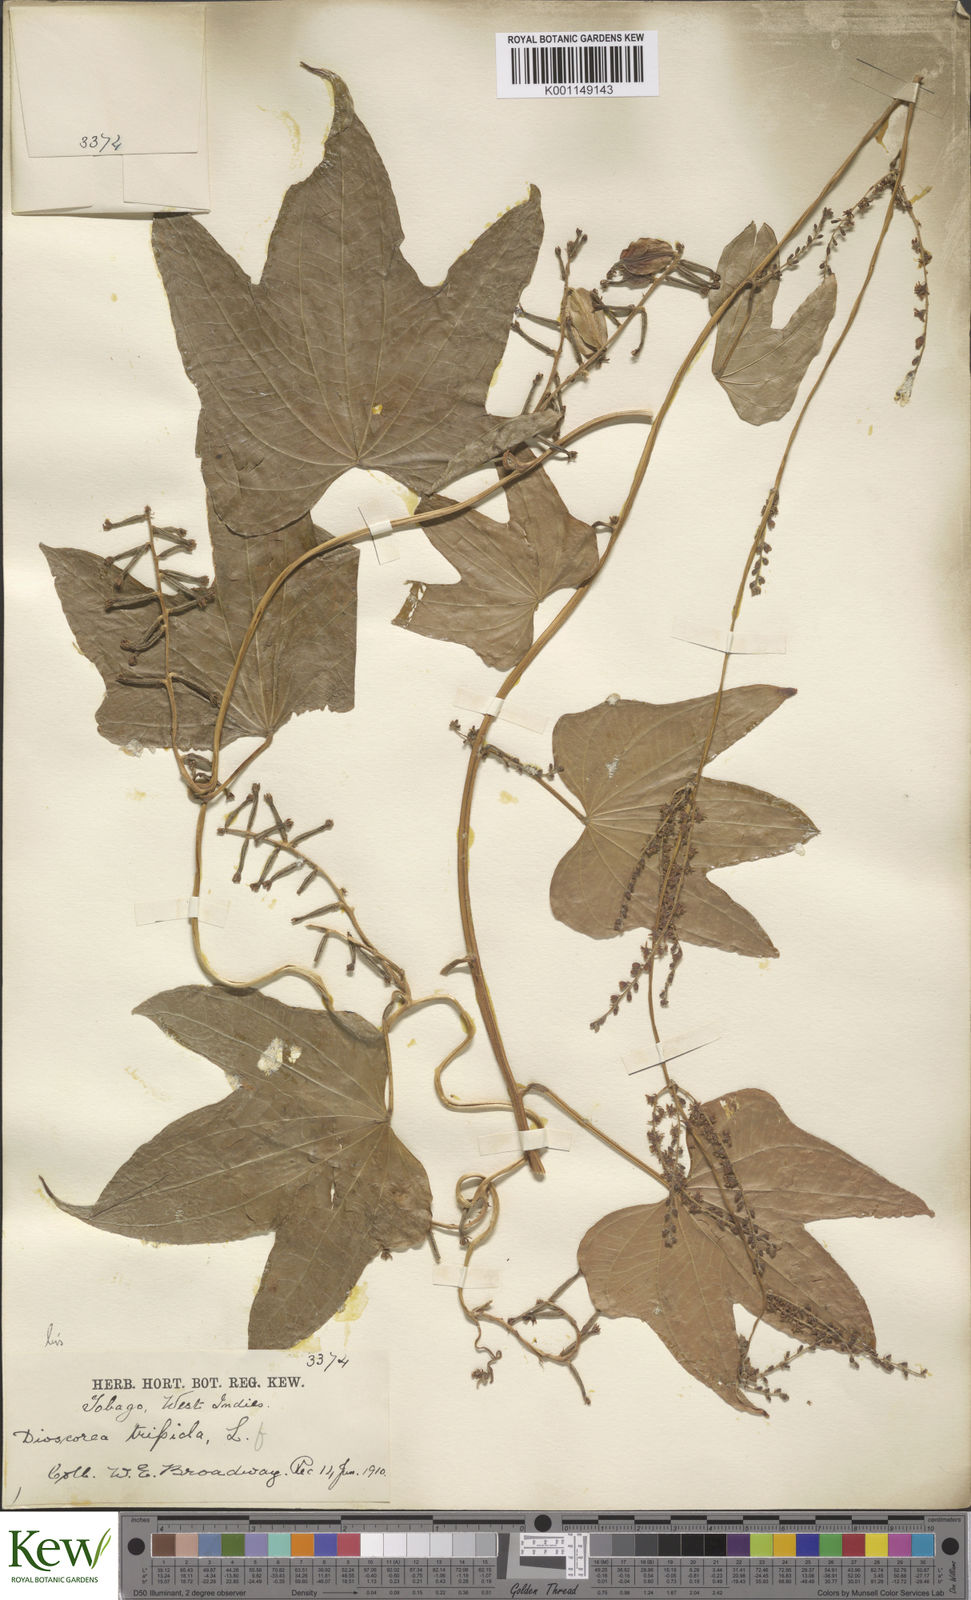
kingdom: Plantae
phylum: Tracheophyta
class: Liliopsida
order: Dioscoreales
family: Dioscoreaceae
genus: Dioscorea
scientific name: Dioscorea trifida
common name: Cush-cush
